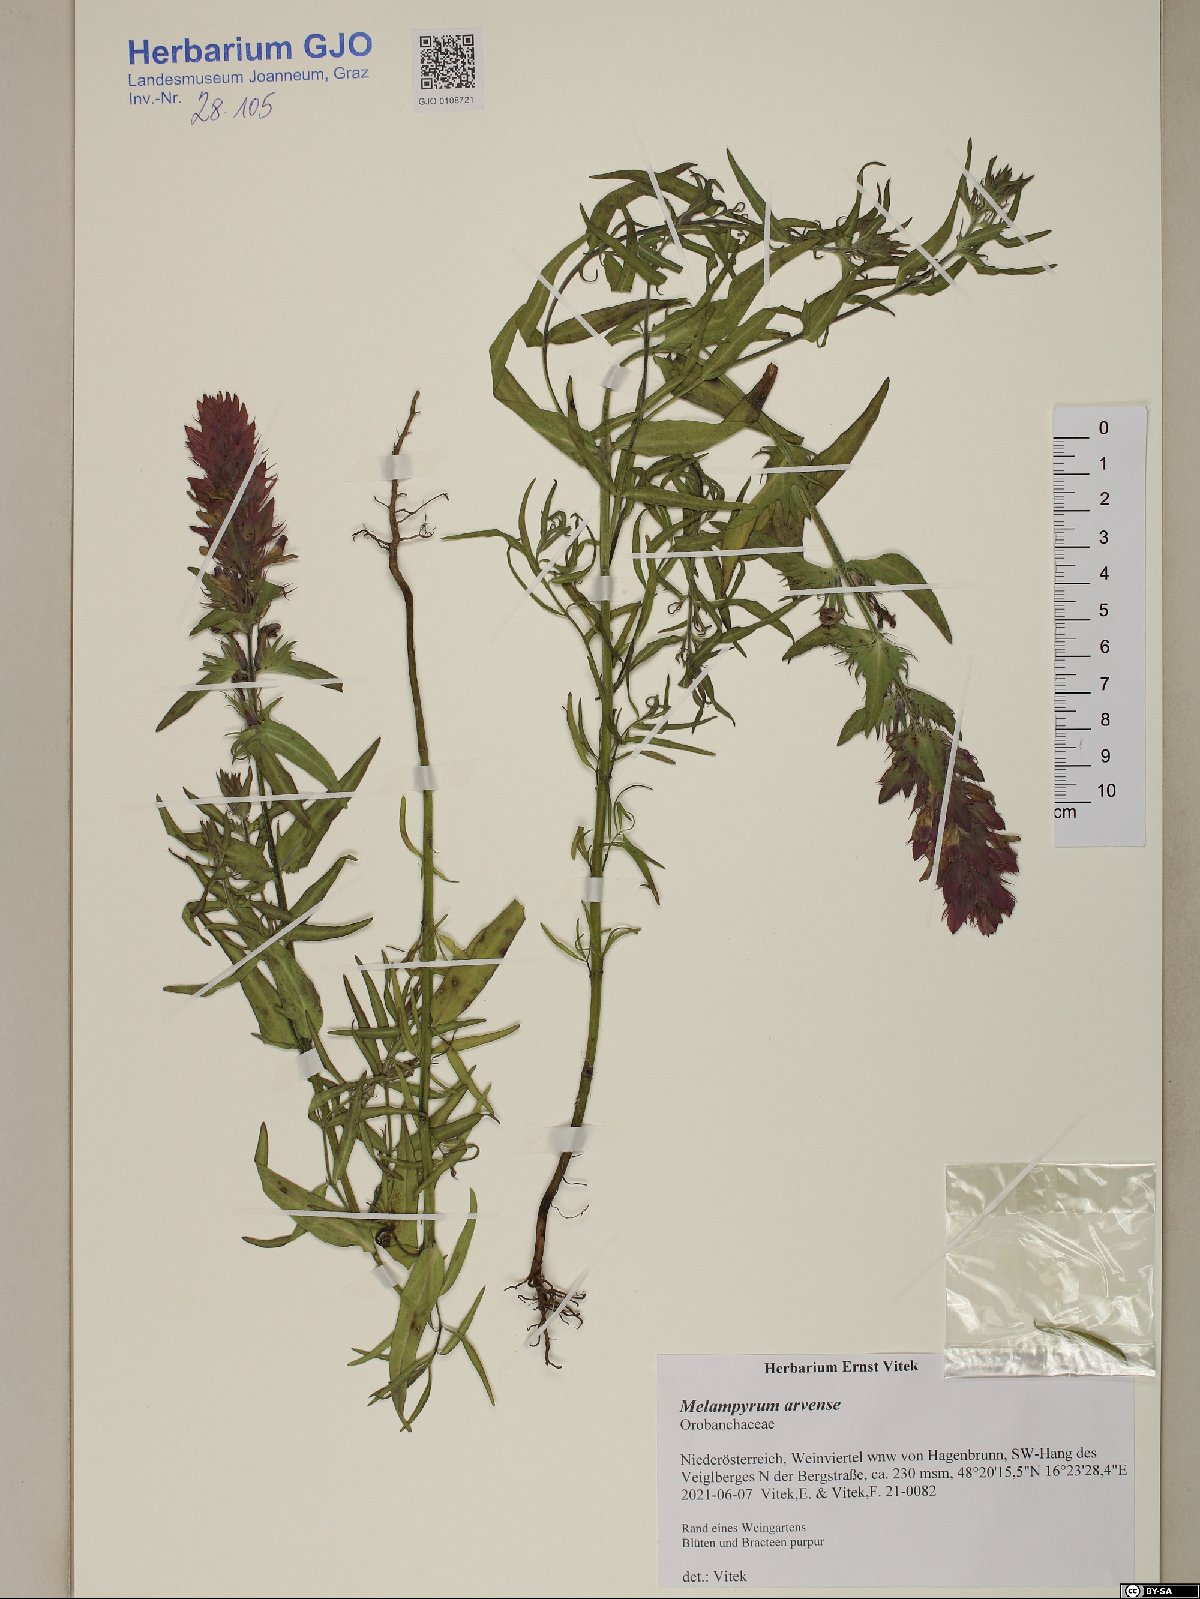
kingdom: Plantae
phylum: Tracheophyta
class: Magnoliopsida
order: Lamiales
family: Orobanchaceae
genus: Melampyrum
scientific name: Melampyrum arvense
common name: Field cow-wheat
